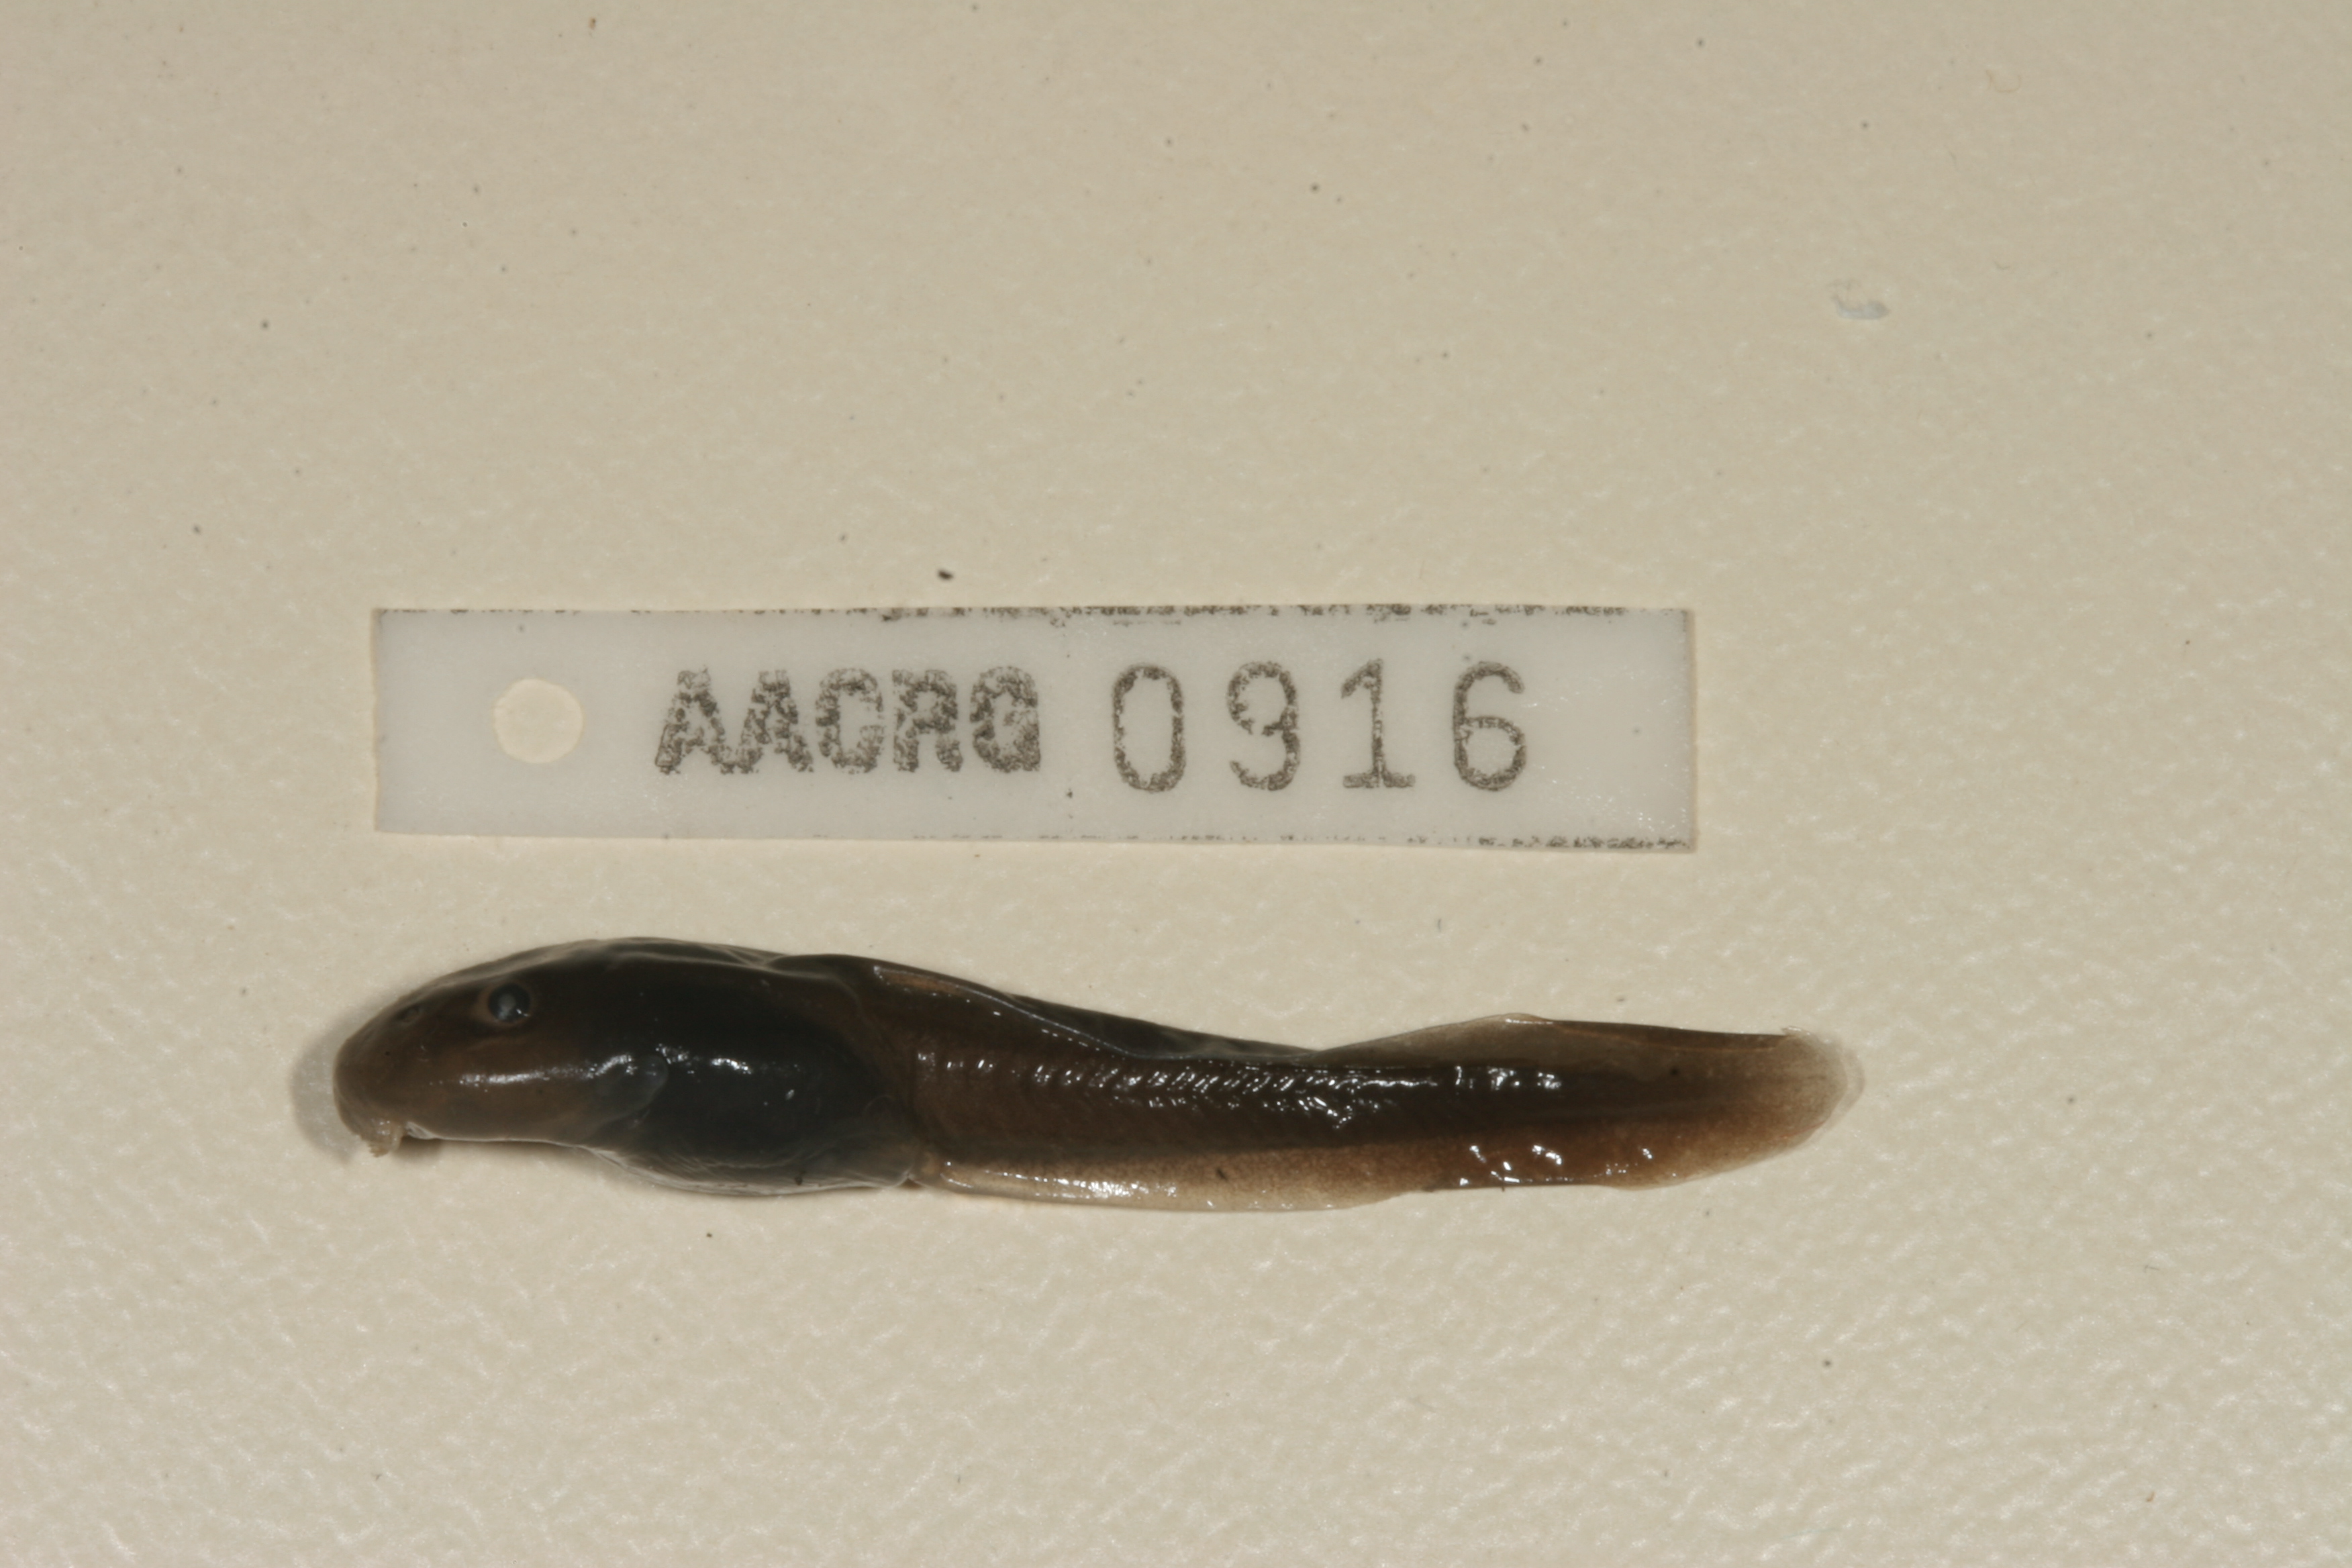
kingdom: Animalia
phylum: Chordata
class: Amphibia
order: Anura
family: Pyxicephalidae
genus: Amietia
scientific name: Amietia vandijki
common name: Van dijk's river frog
